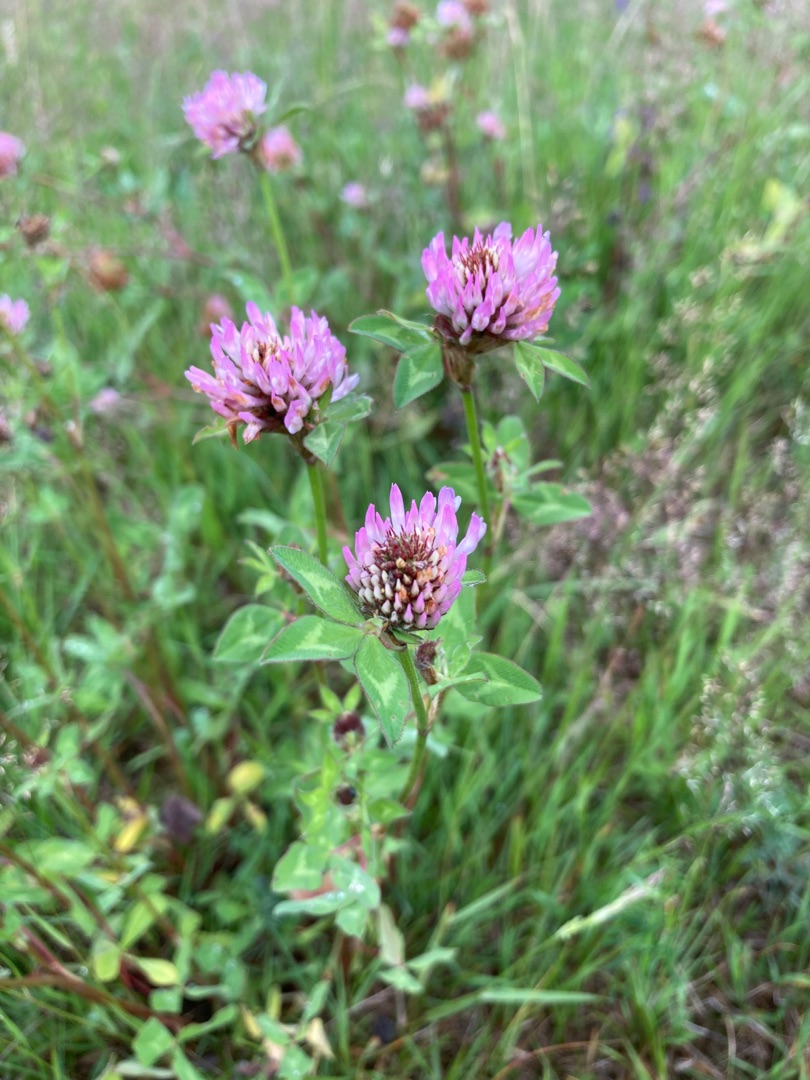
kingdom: Plantae
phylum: Tracheophyta
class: Magnoliopsida
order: Fabales
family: Fabaceae
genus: Trifolium
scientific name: Trifolium pratense
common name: Rød-kløver
